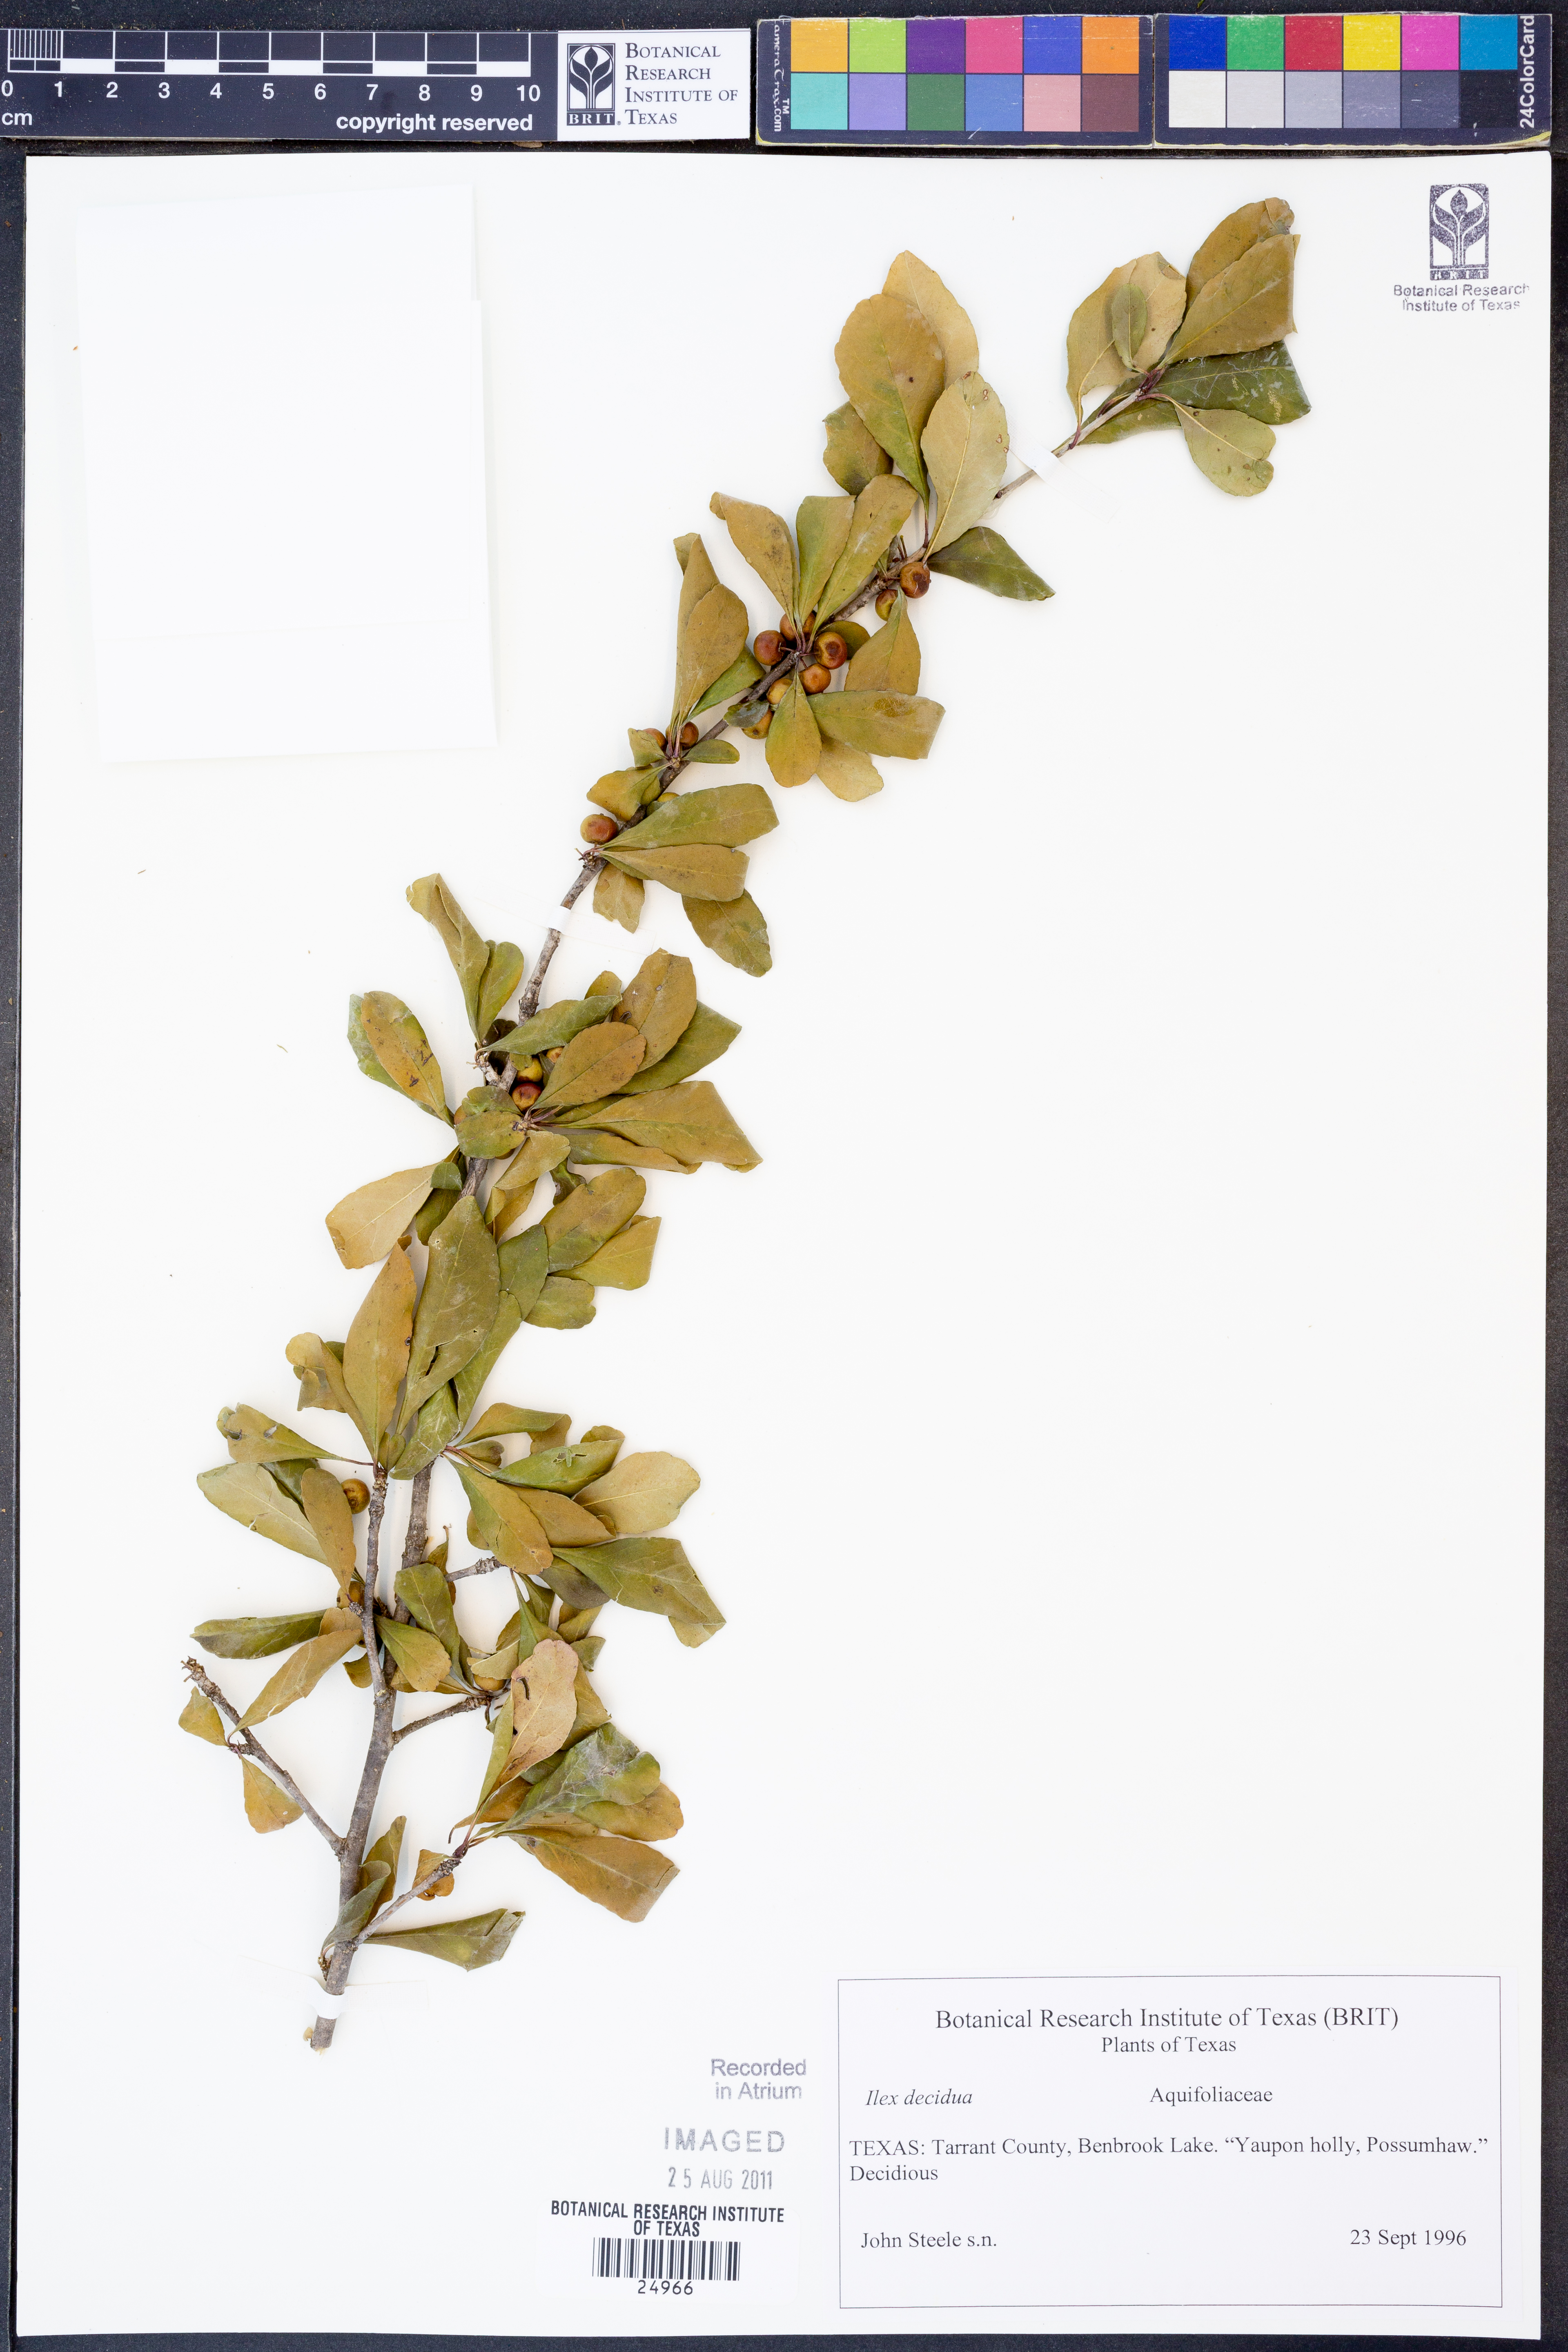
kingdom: Plantae
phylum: Tracheophyta
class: Magnoliopsida
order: Aquifoliales
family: Aquifoliaceae
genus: Ilex
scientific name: Ilex decidua
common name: Possum-haw
